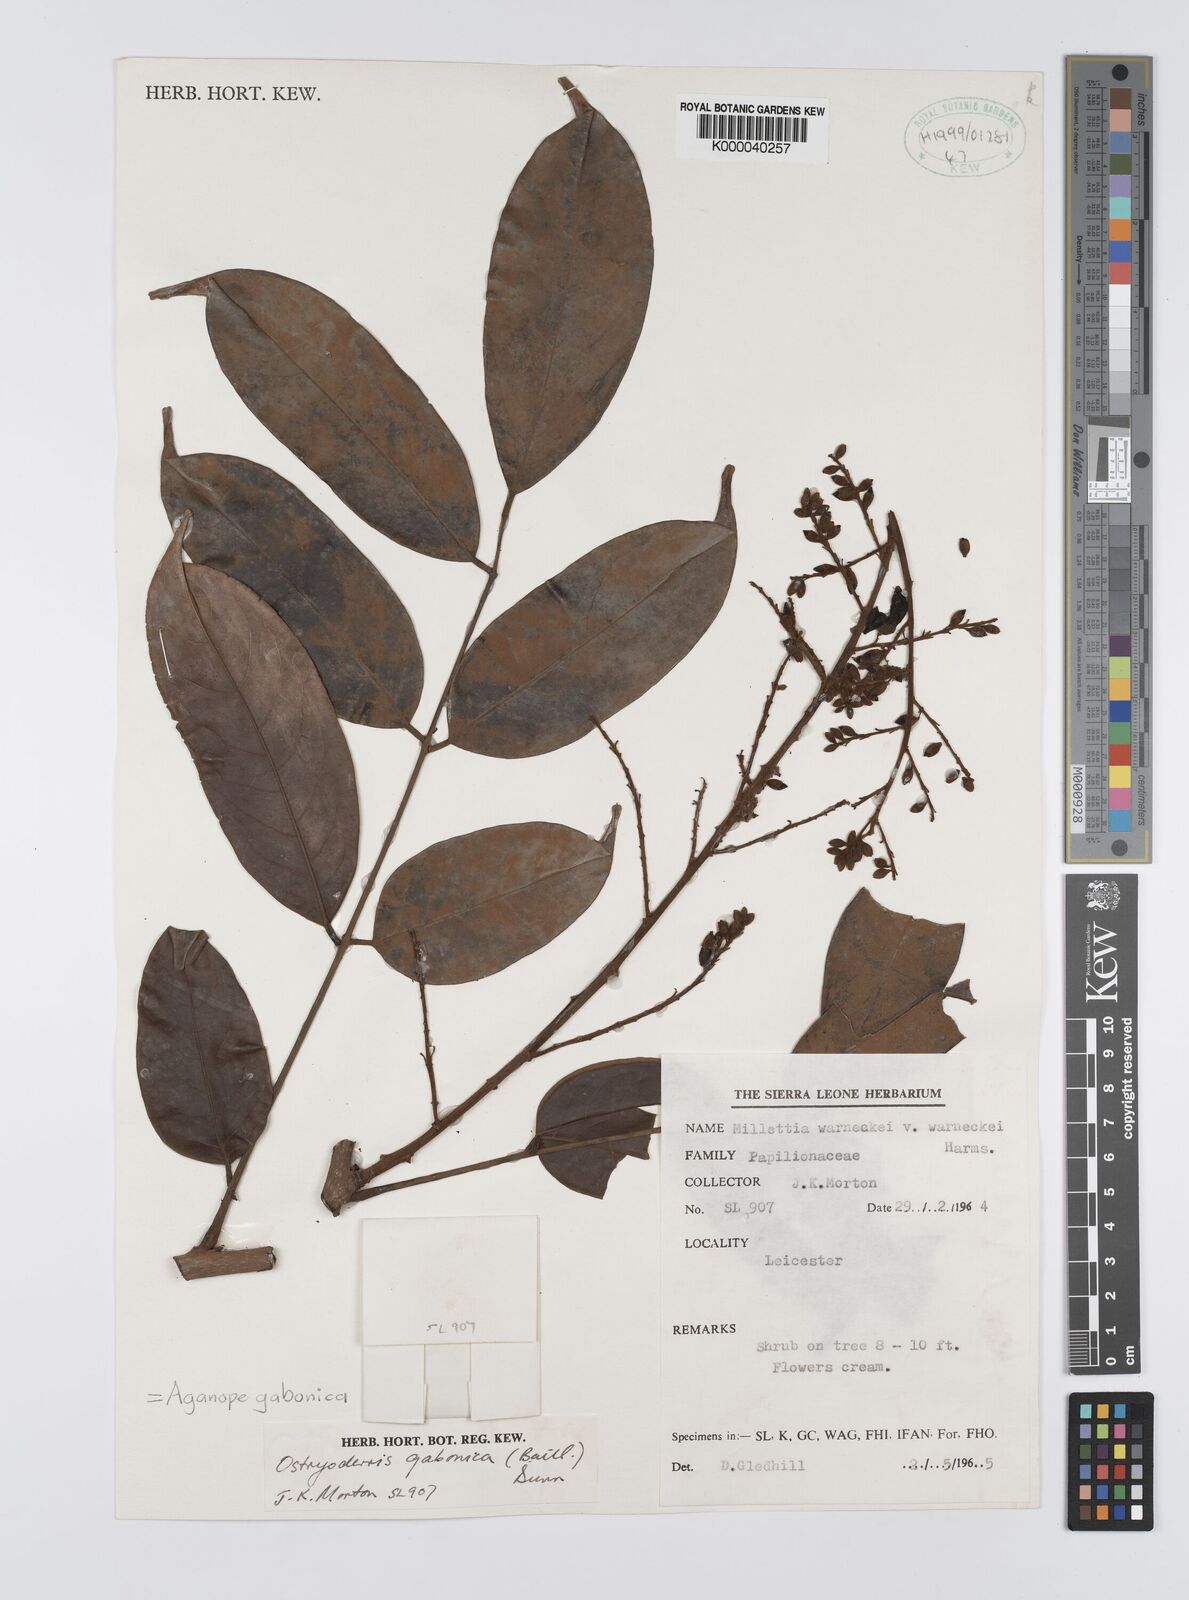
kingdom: Plantae
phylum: Tracheophyta
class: Magnoliopsida
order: Fabales
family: Fabaceae
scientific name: Fabaceae
